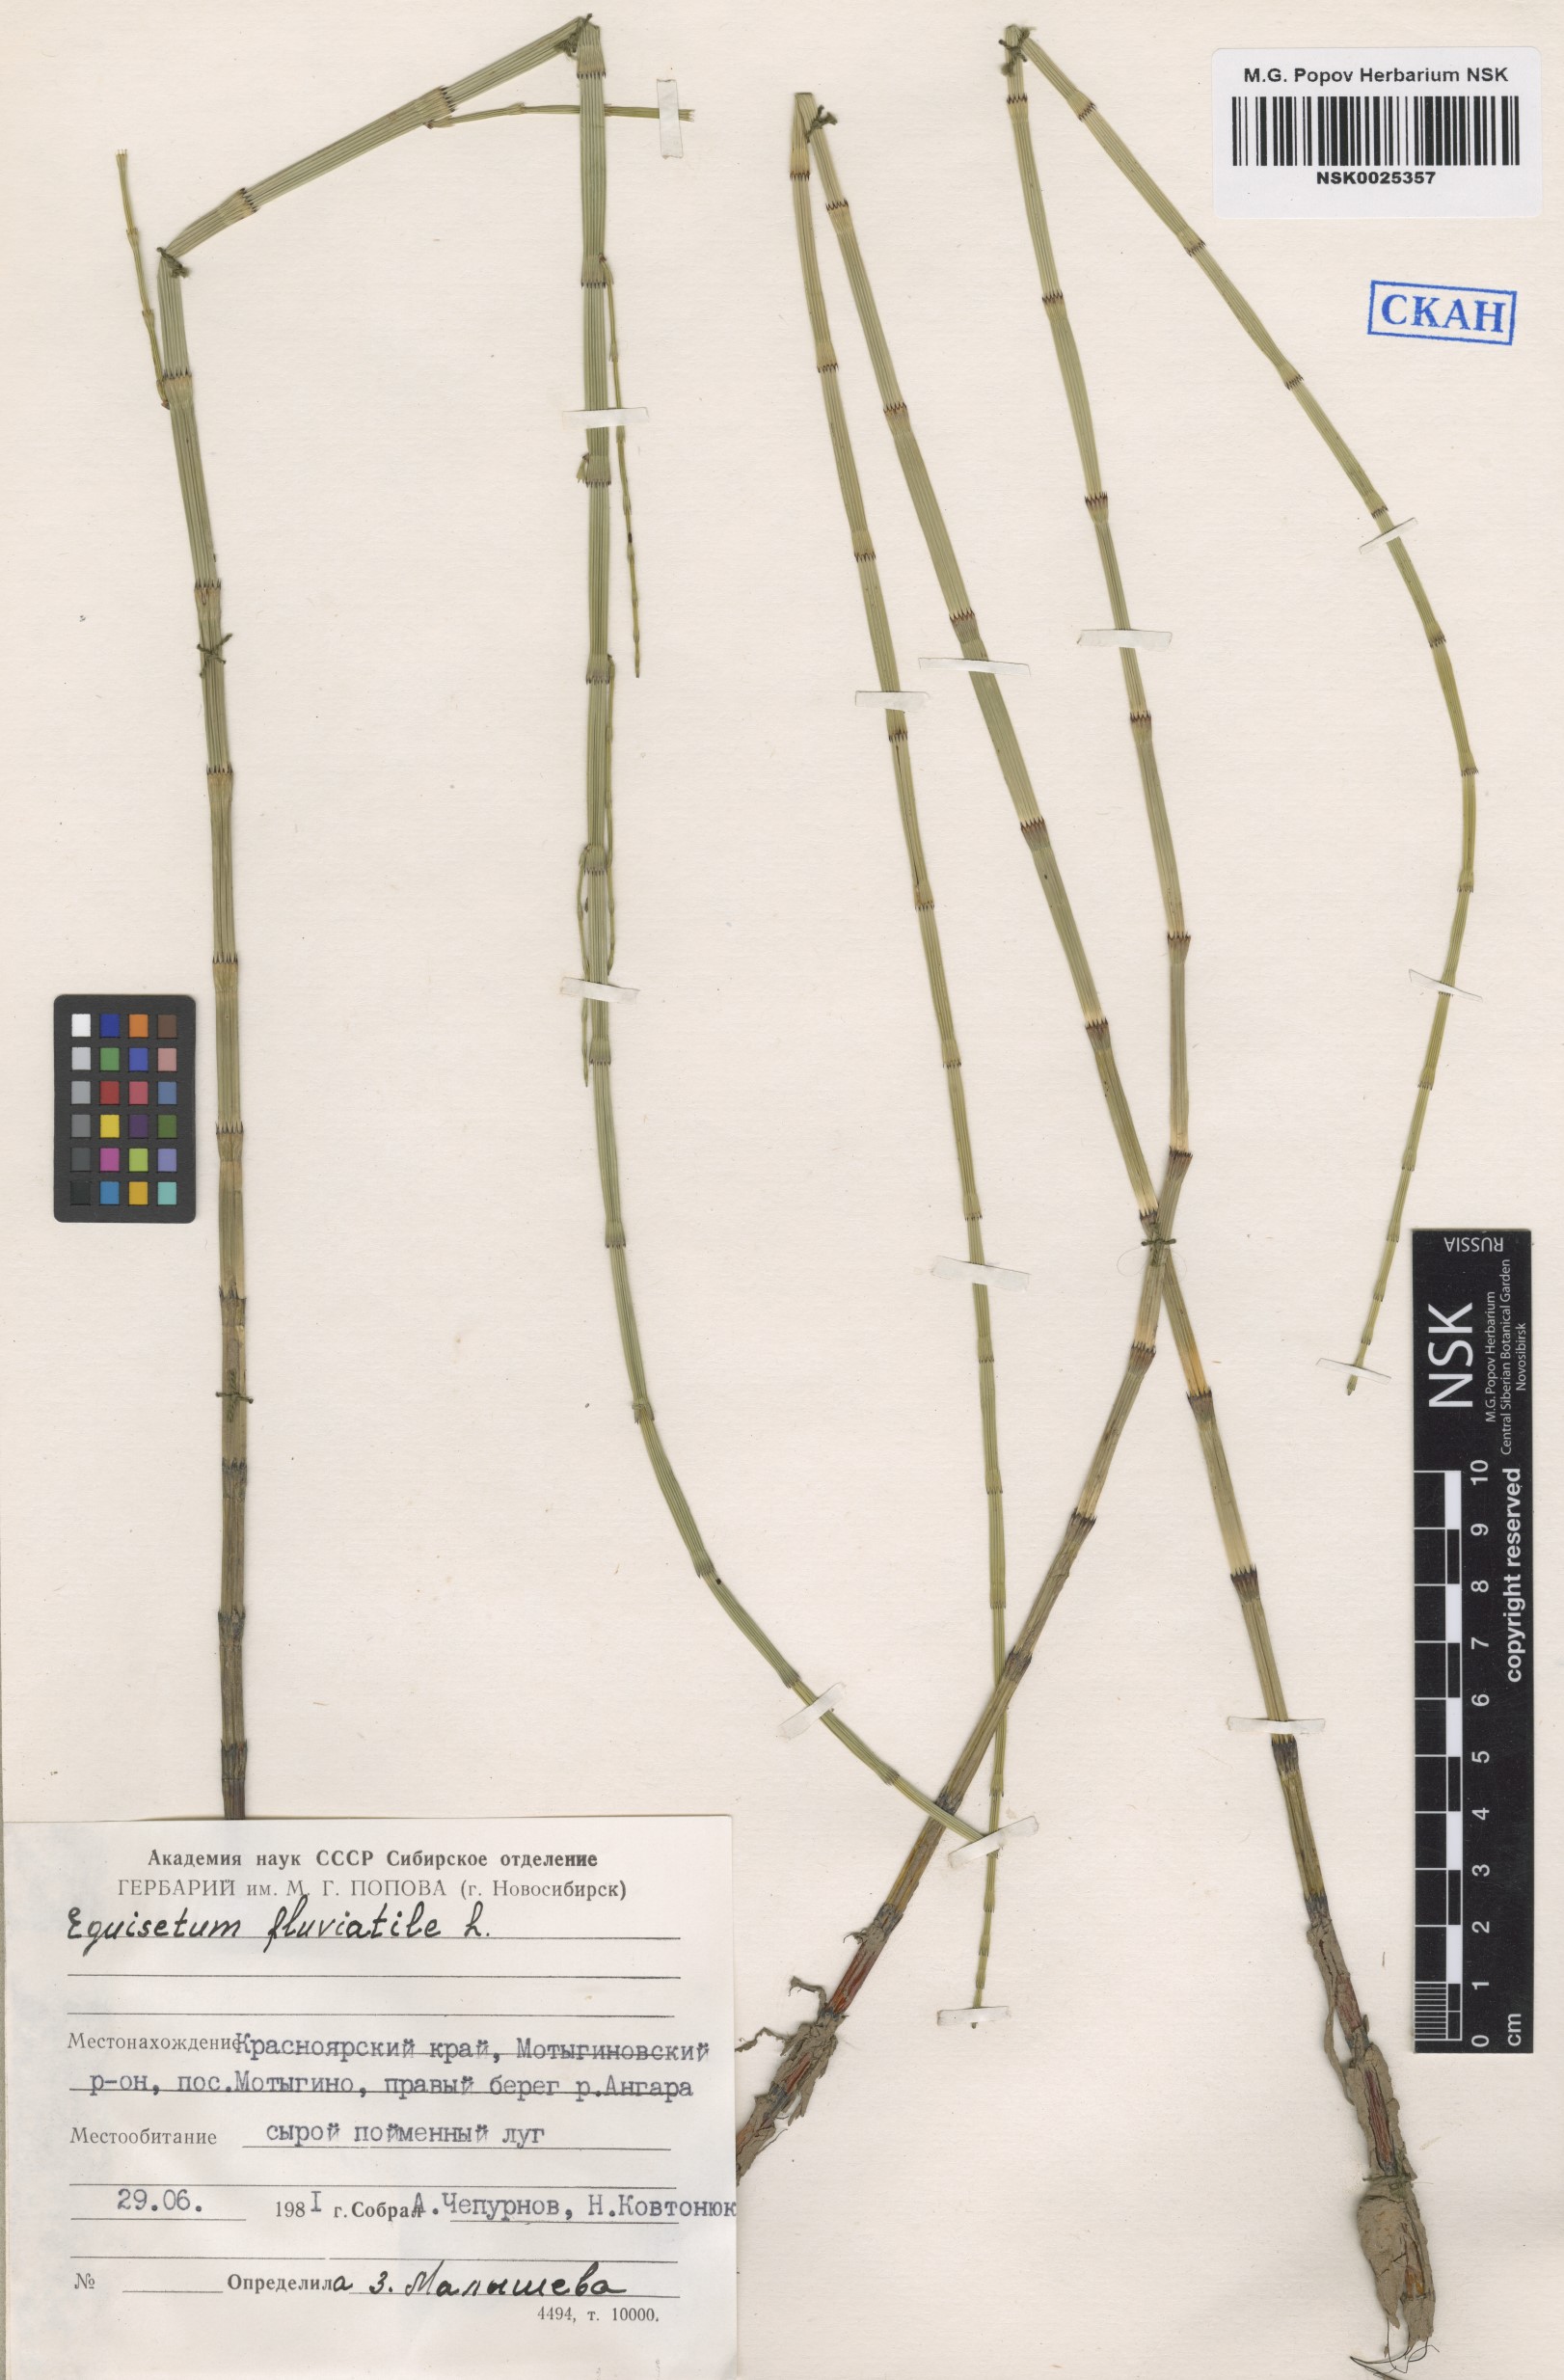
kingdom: Plantae
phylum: Tracheophyta
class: Polypodiopsida
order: Equisetales
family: Equisetaceae
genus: Equisetum
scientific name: Equisetum fluviatile
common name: Water horsetail
